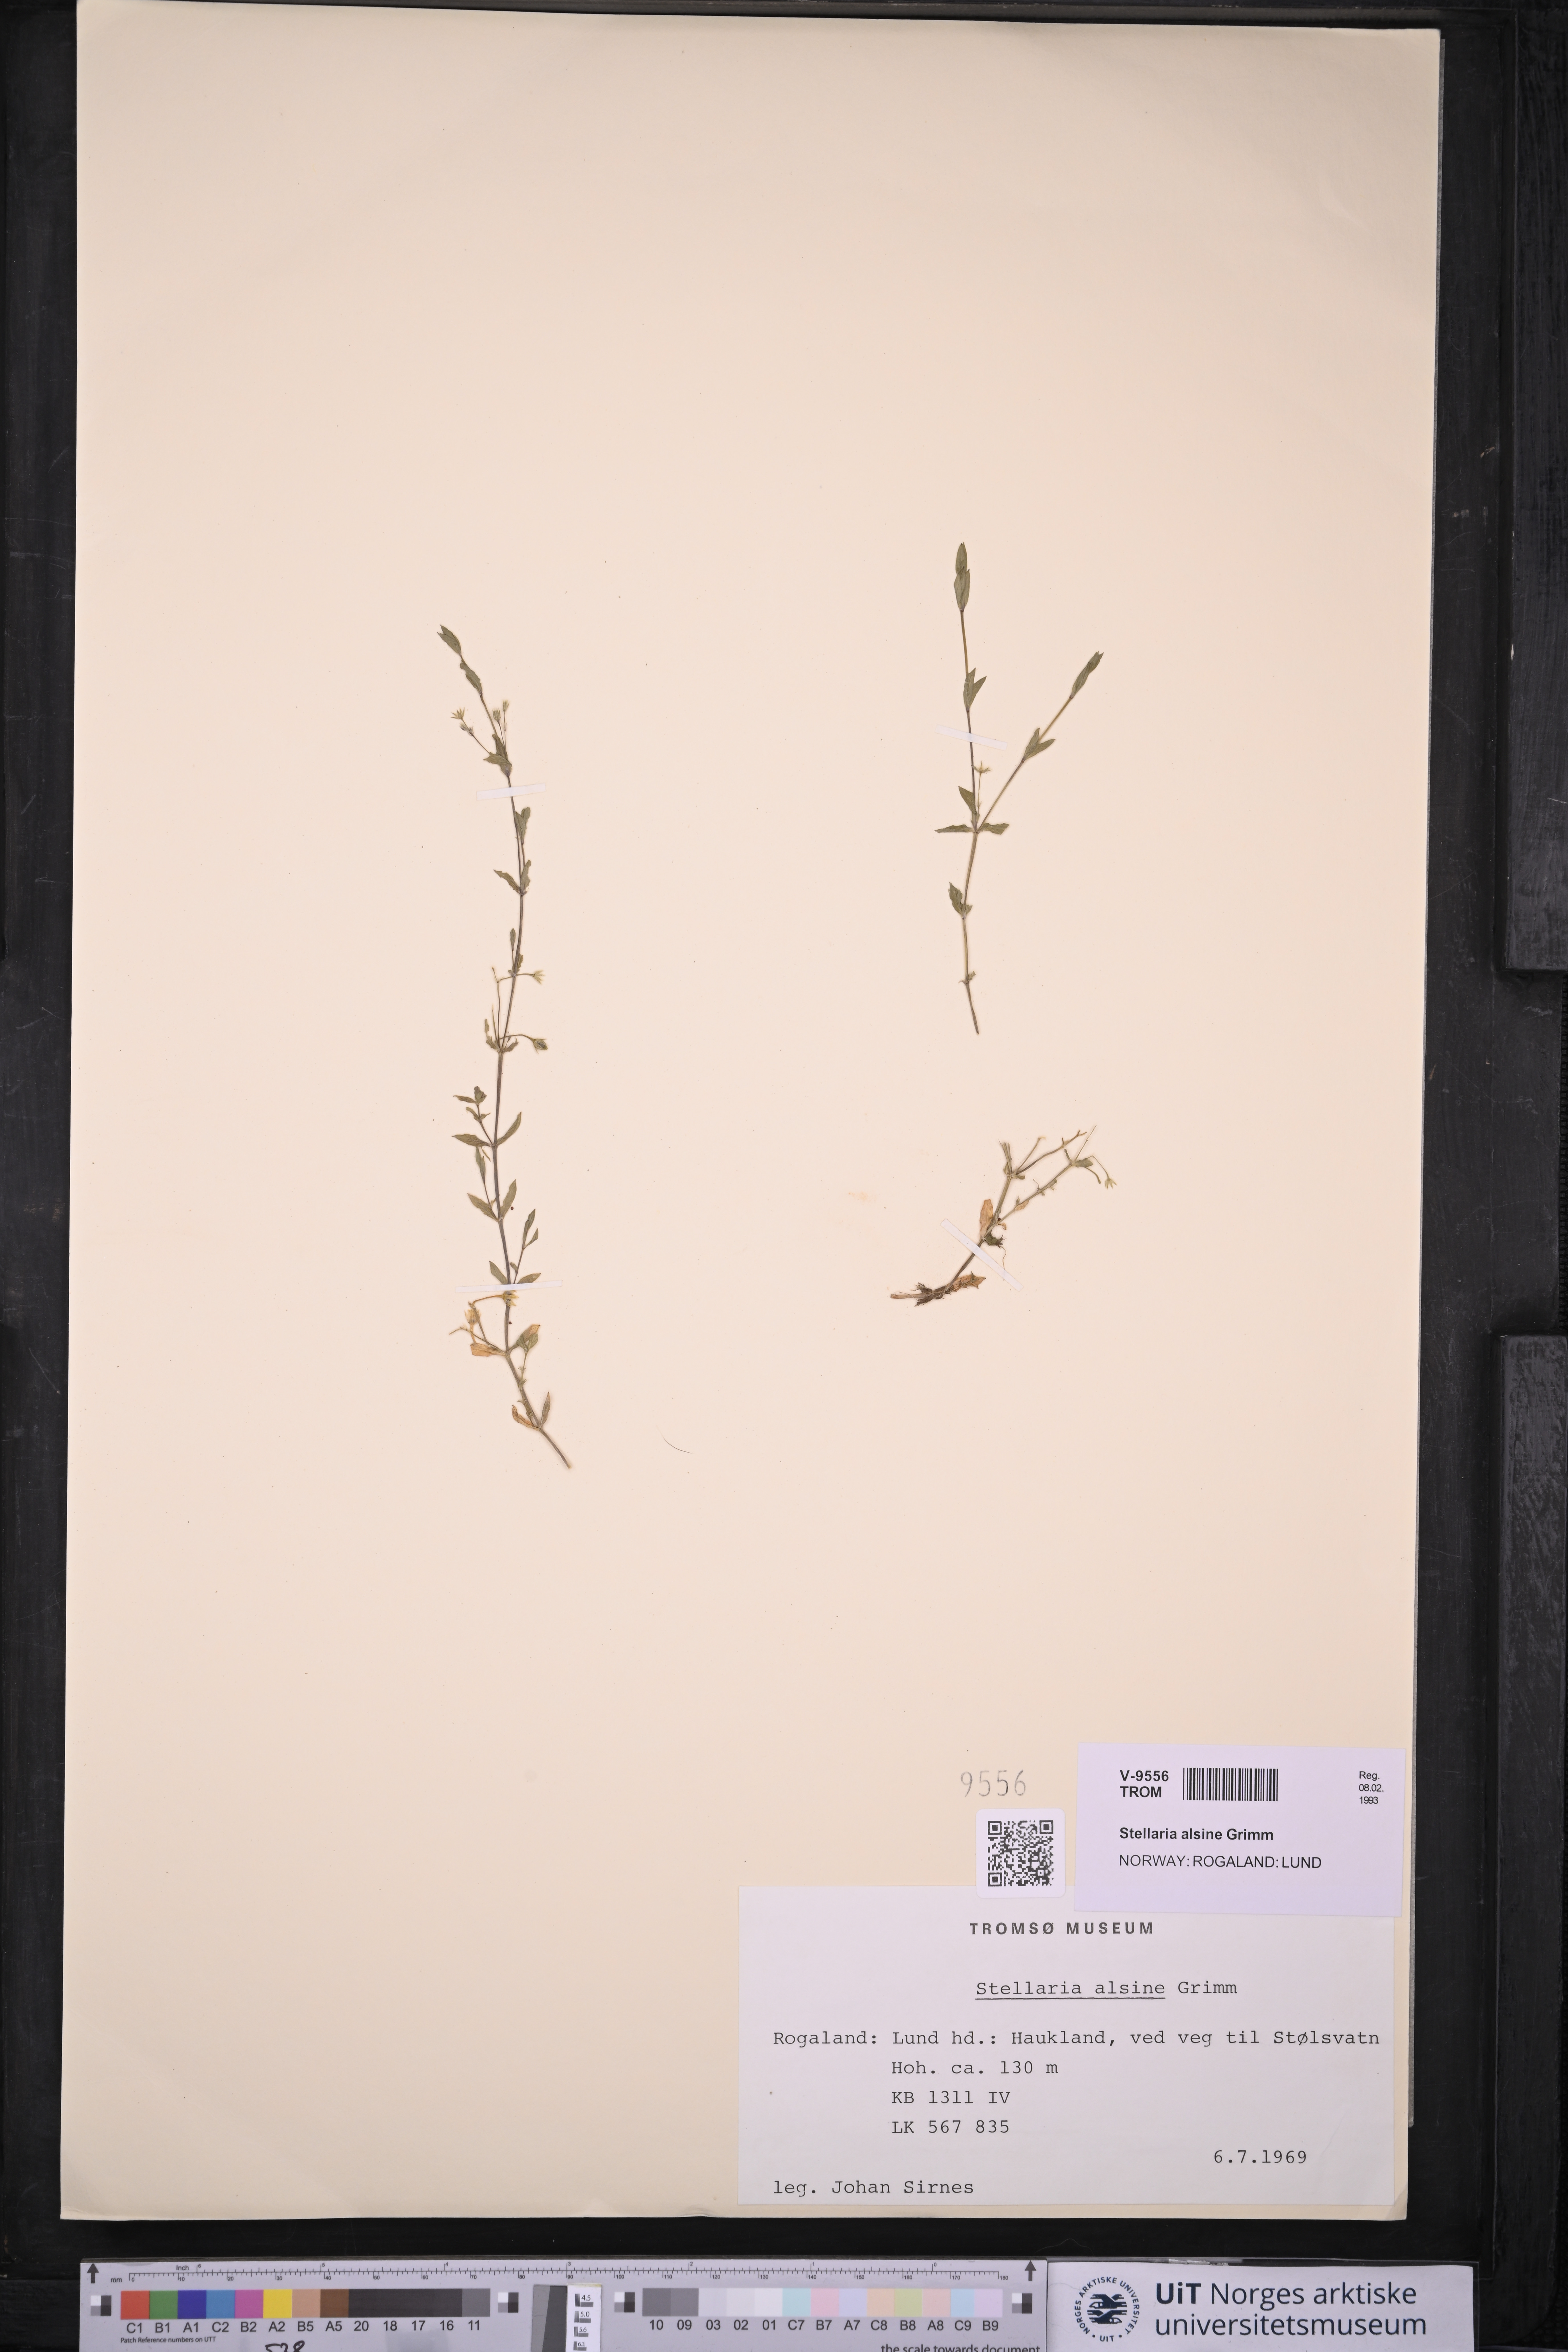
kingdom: Plantae
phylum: Tracheophyta
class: Magnoliopsida
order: Caryophyllales
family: Caryophyllaceae
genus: Stellaria
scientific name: Stellaria alsine
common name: Bog stitchwort
